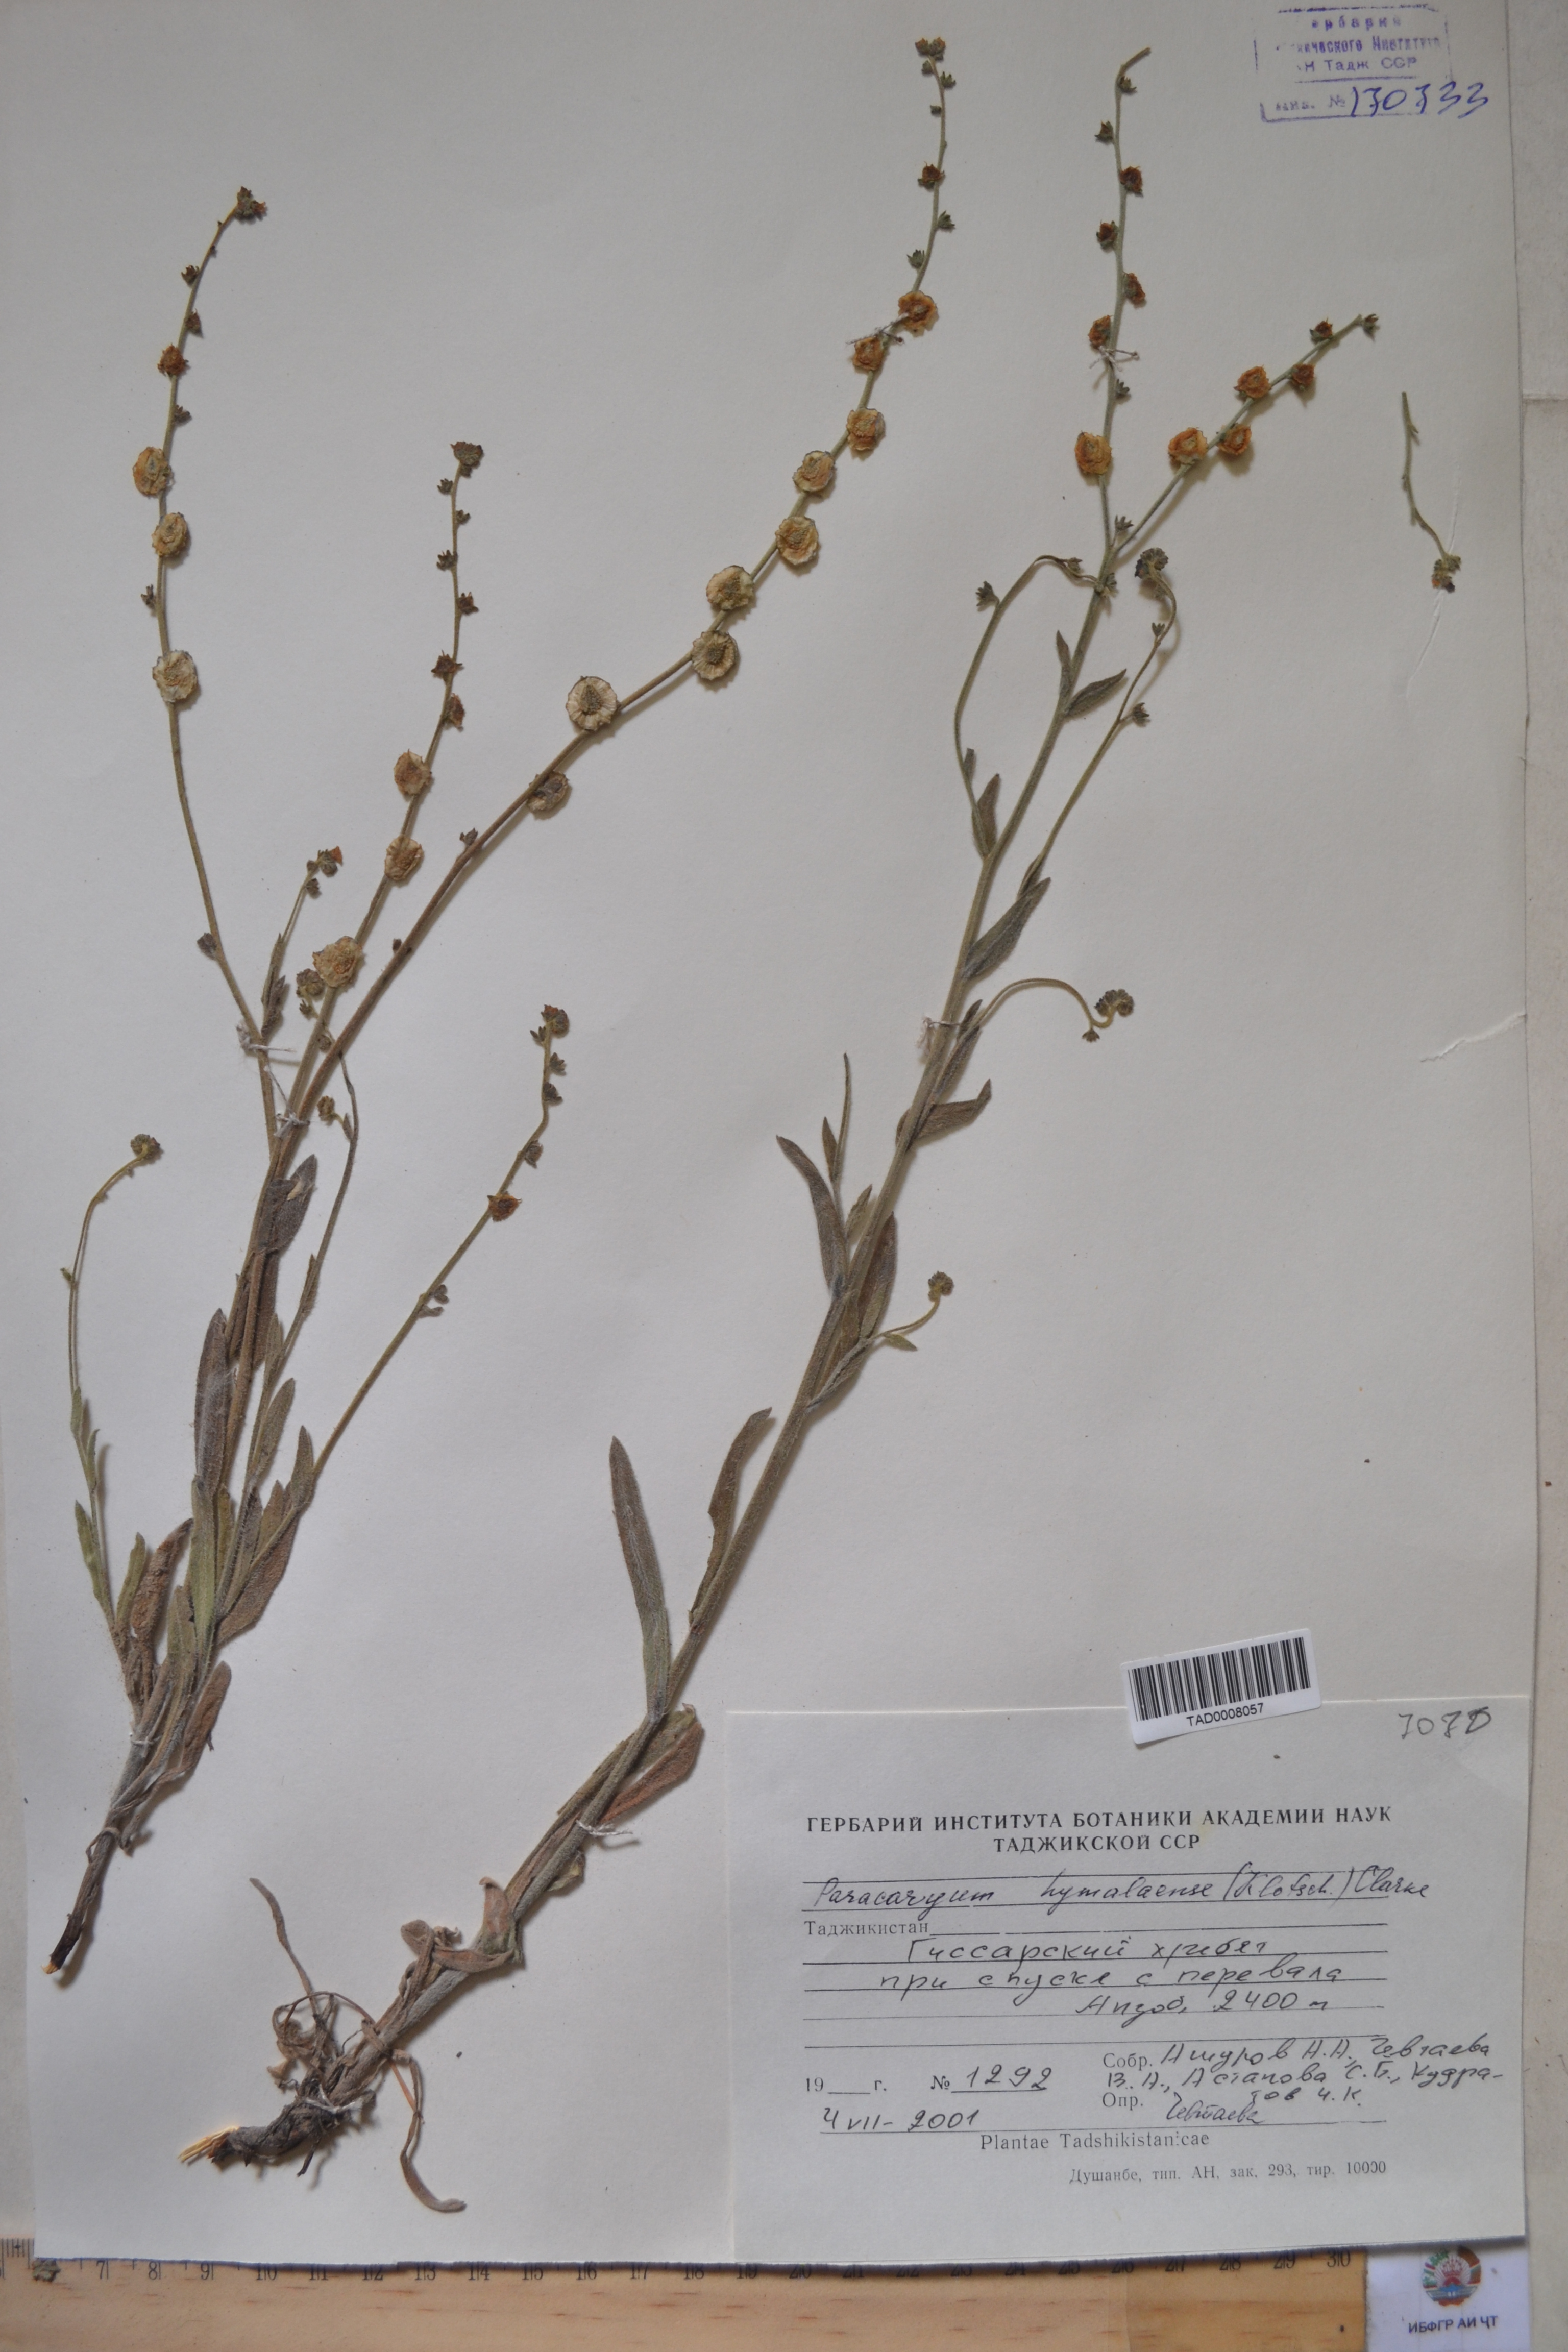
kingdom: Plantae
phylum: Tracheophyta
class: Magnoliopsida
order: Boraginales
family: Boraginaceae
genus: Paracaryum
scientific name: Paracaryum himalayense
